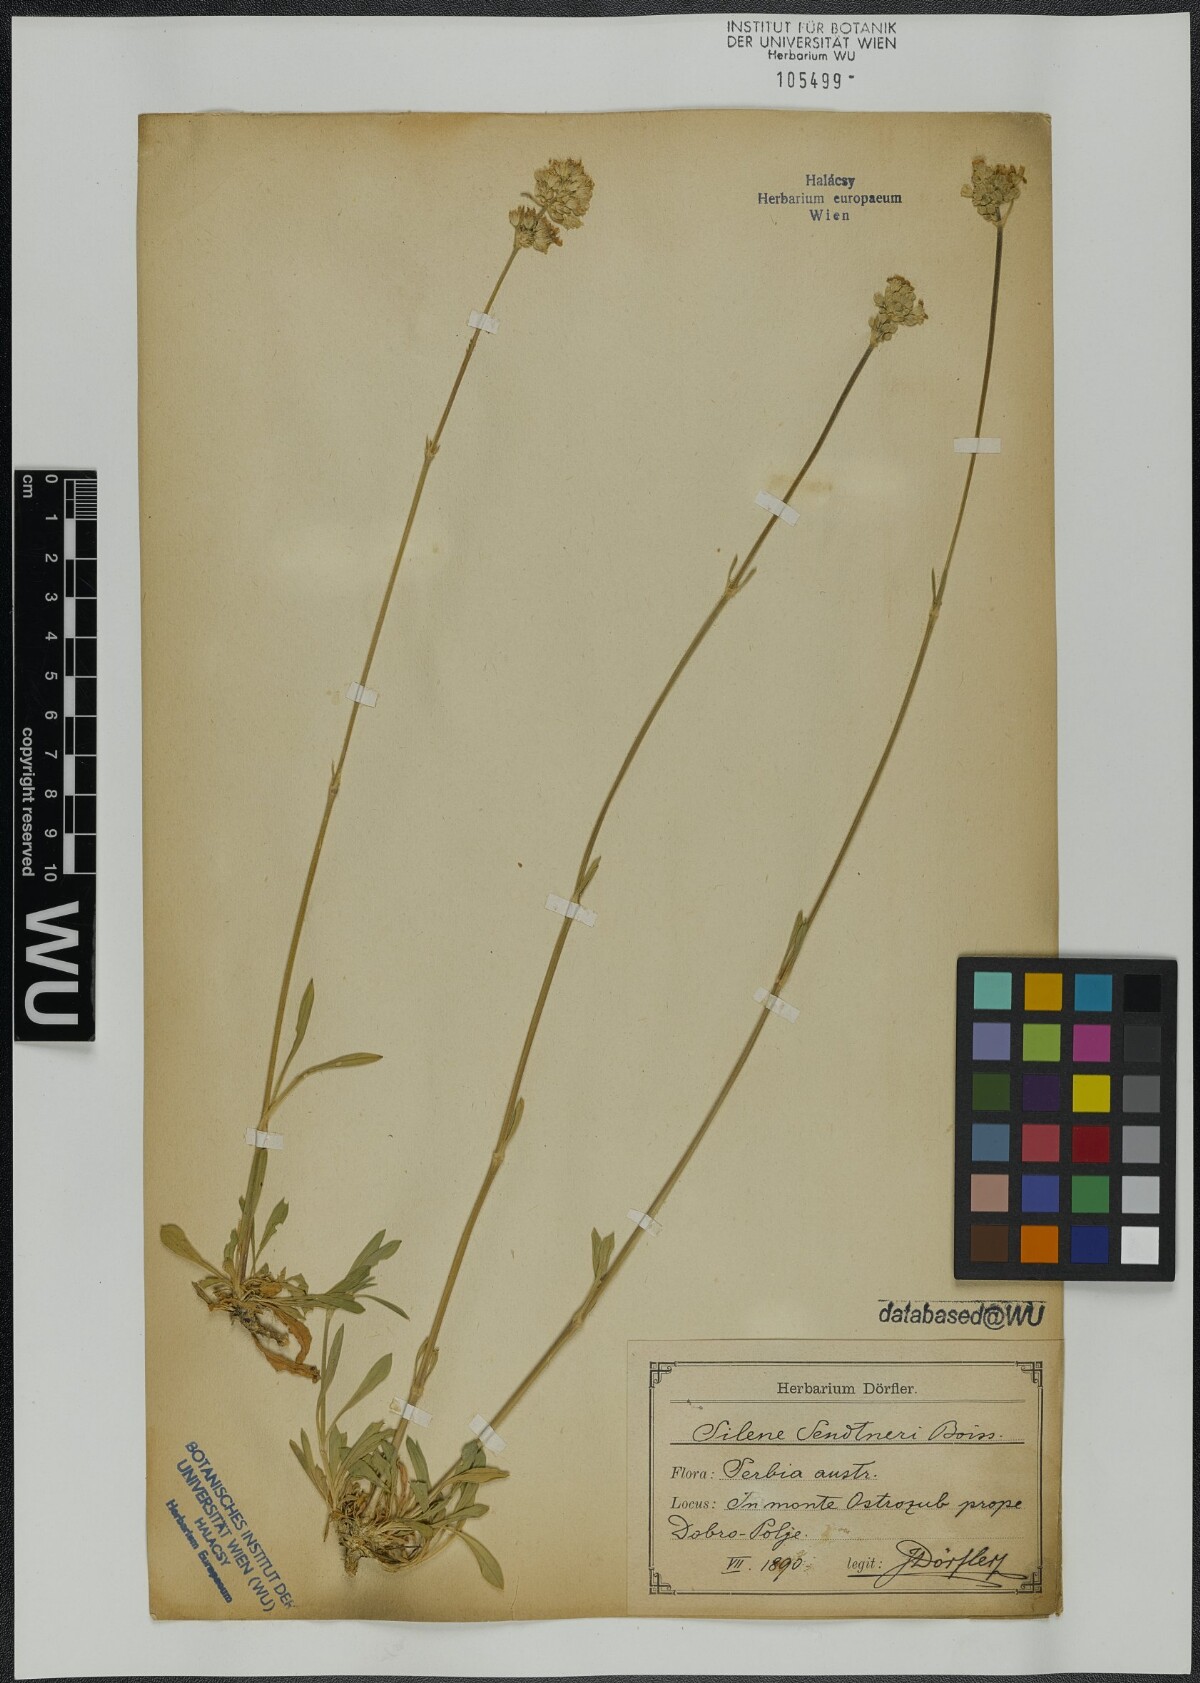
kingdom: Plantae
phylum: Tracheophyta
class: Magnoliopsida
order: Caryophyllales
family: Caryophyllaceae
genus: Silene
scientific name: Silene sendtneri
